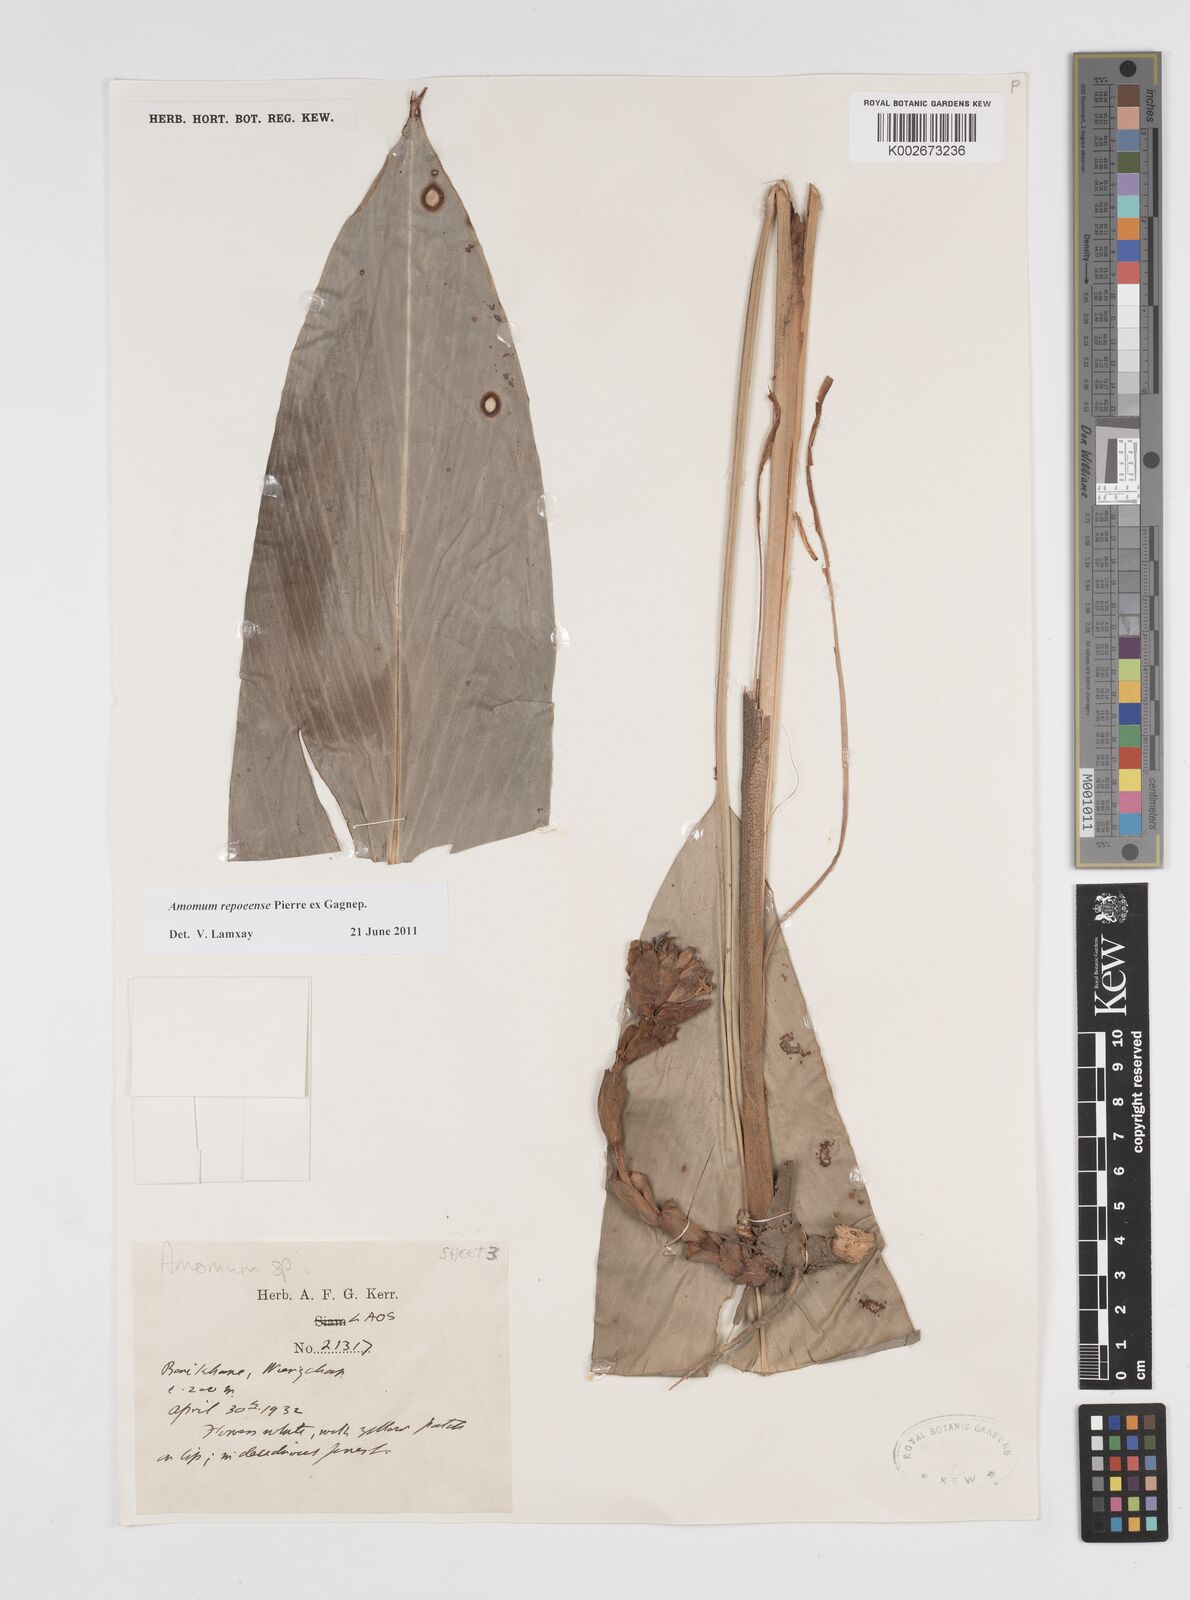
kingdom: Plantae
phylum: Tracheophyta
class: Liliopsida
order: Zingiberales
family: Zingiberaceae
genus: Amomum
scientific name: Amomum repoeense
